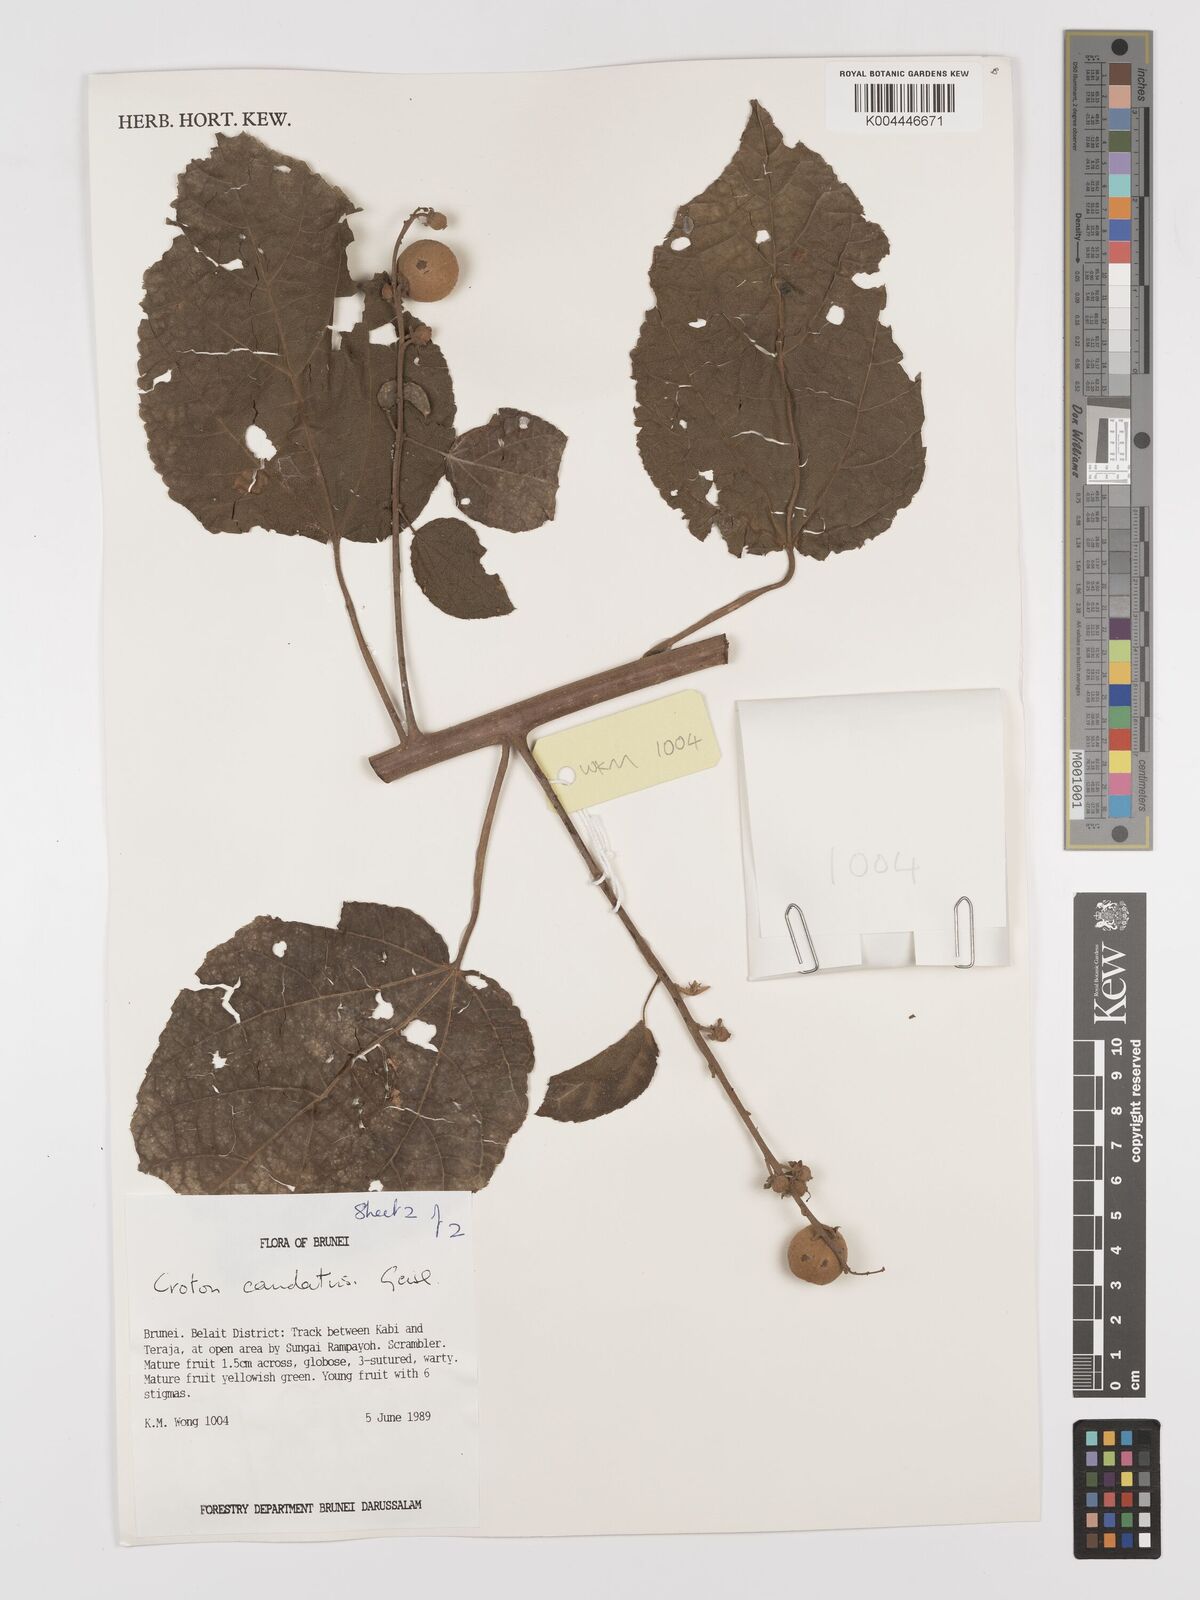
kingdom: Plantae
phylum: Tracheophyta
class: Magnoliopsida
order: Malpighiales
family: Euphorbiaceae
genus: Croton
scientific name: Croton caudatus
